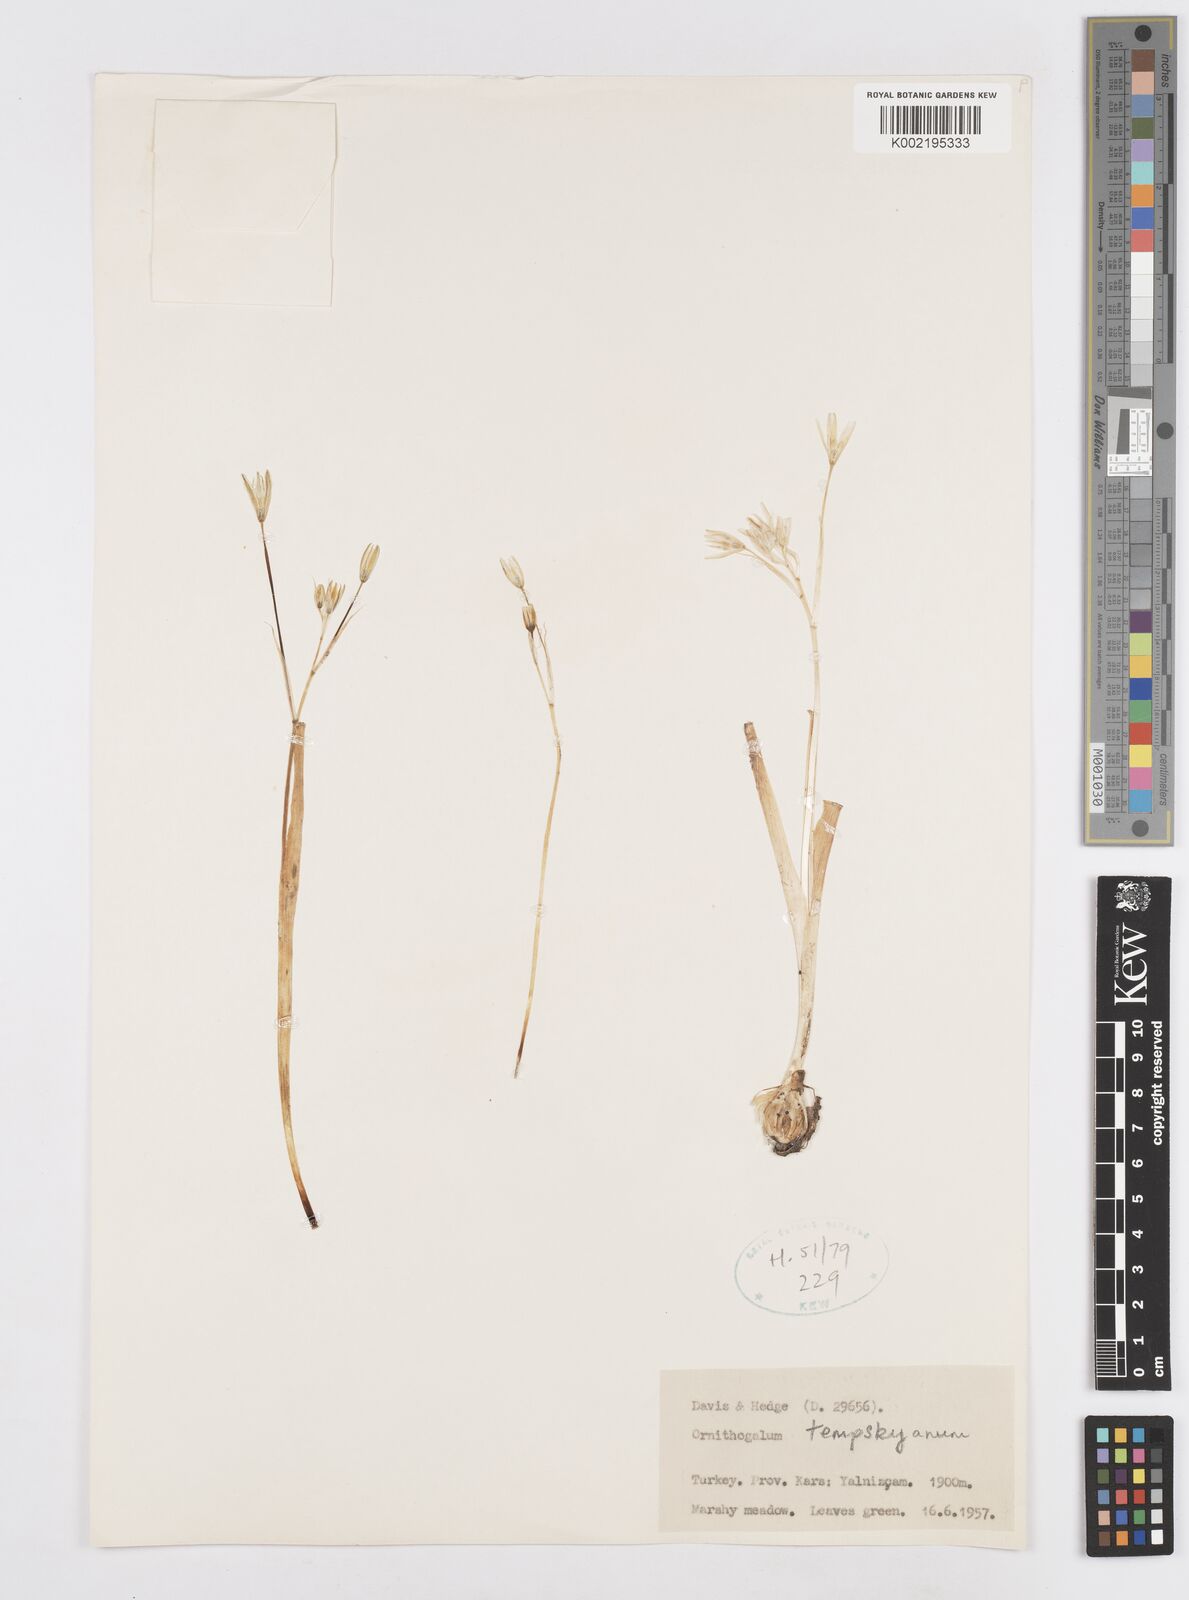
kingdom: Plantae
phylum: Tracheophyta
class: Liliopsida
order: Asparagales
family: Asparagaceae
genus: Ornithogalum
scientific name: Ornithogalum graciliflorum
